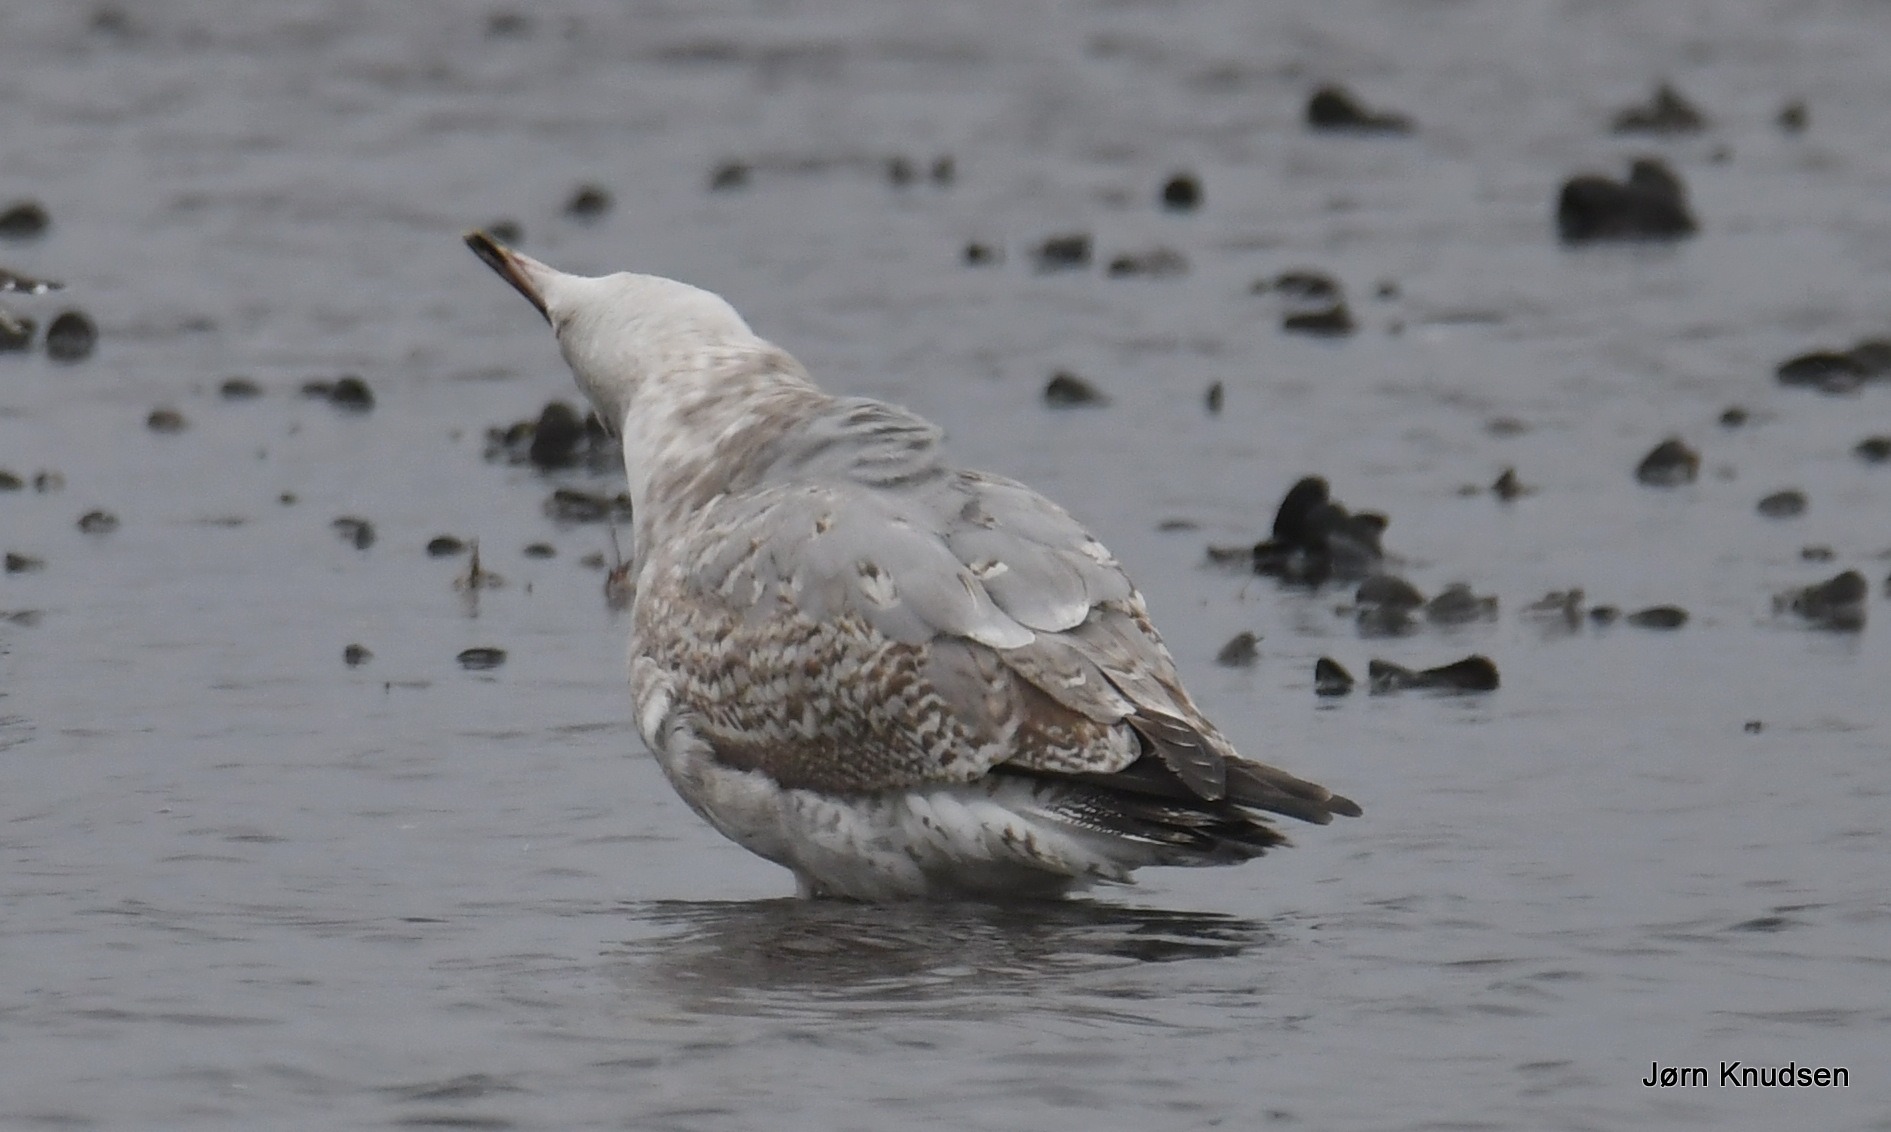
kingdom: Animalia
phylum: Chordata
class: Aves
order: Charadriiformes
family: Laridae
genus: Larus
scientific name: Larus argentatus
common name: Sølvmåge
